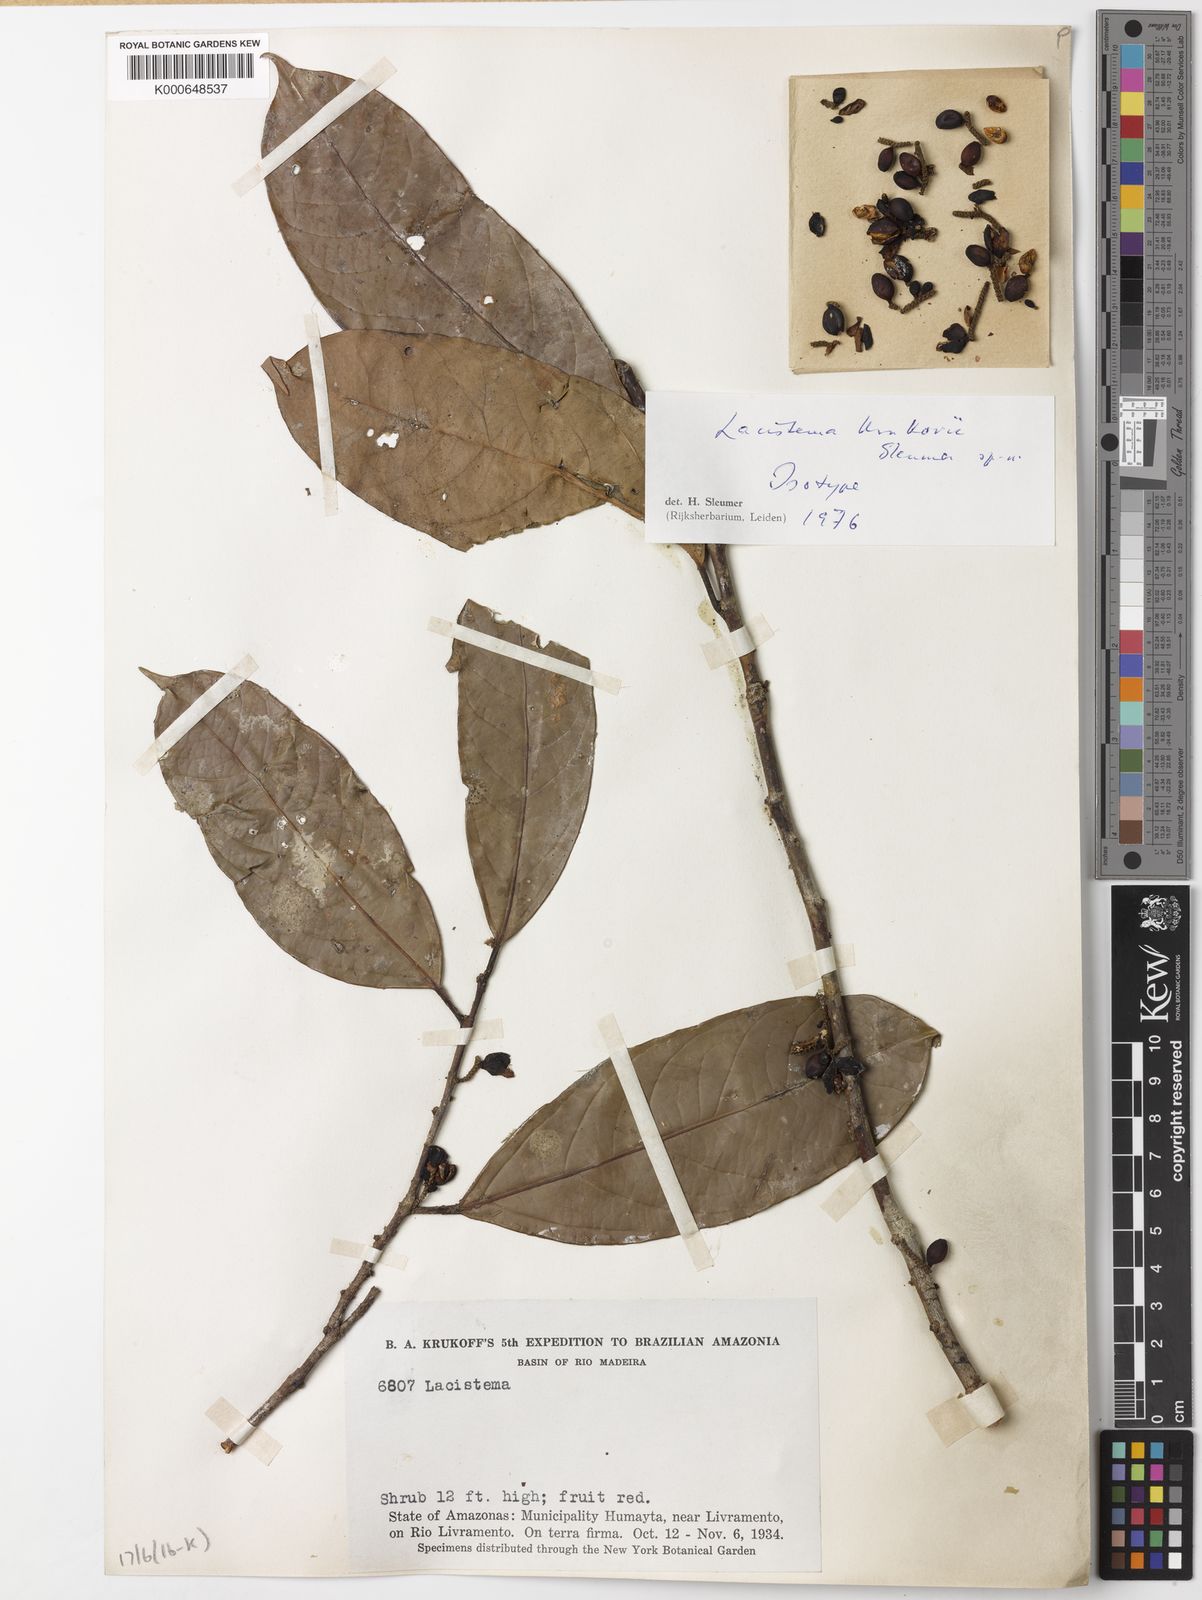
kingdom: Plantae
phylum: Tracheophyta
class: Magnoliopsida
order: Malpighiales
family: Lacistemataceae
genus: Lacistema
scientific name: Lacistema krukovii
